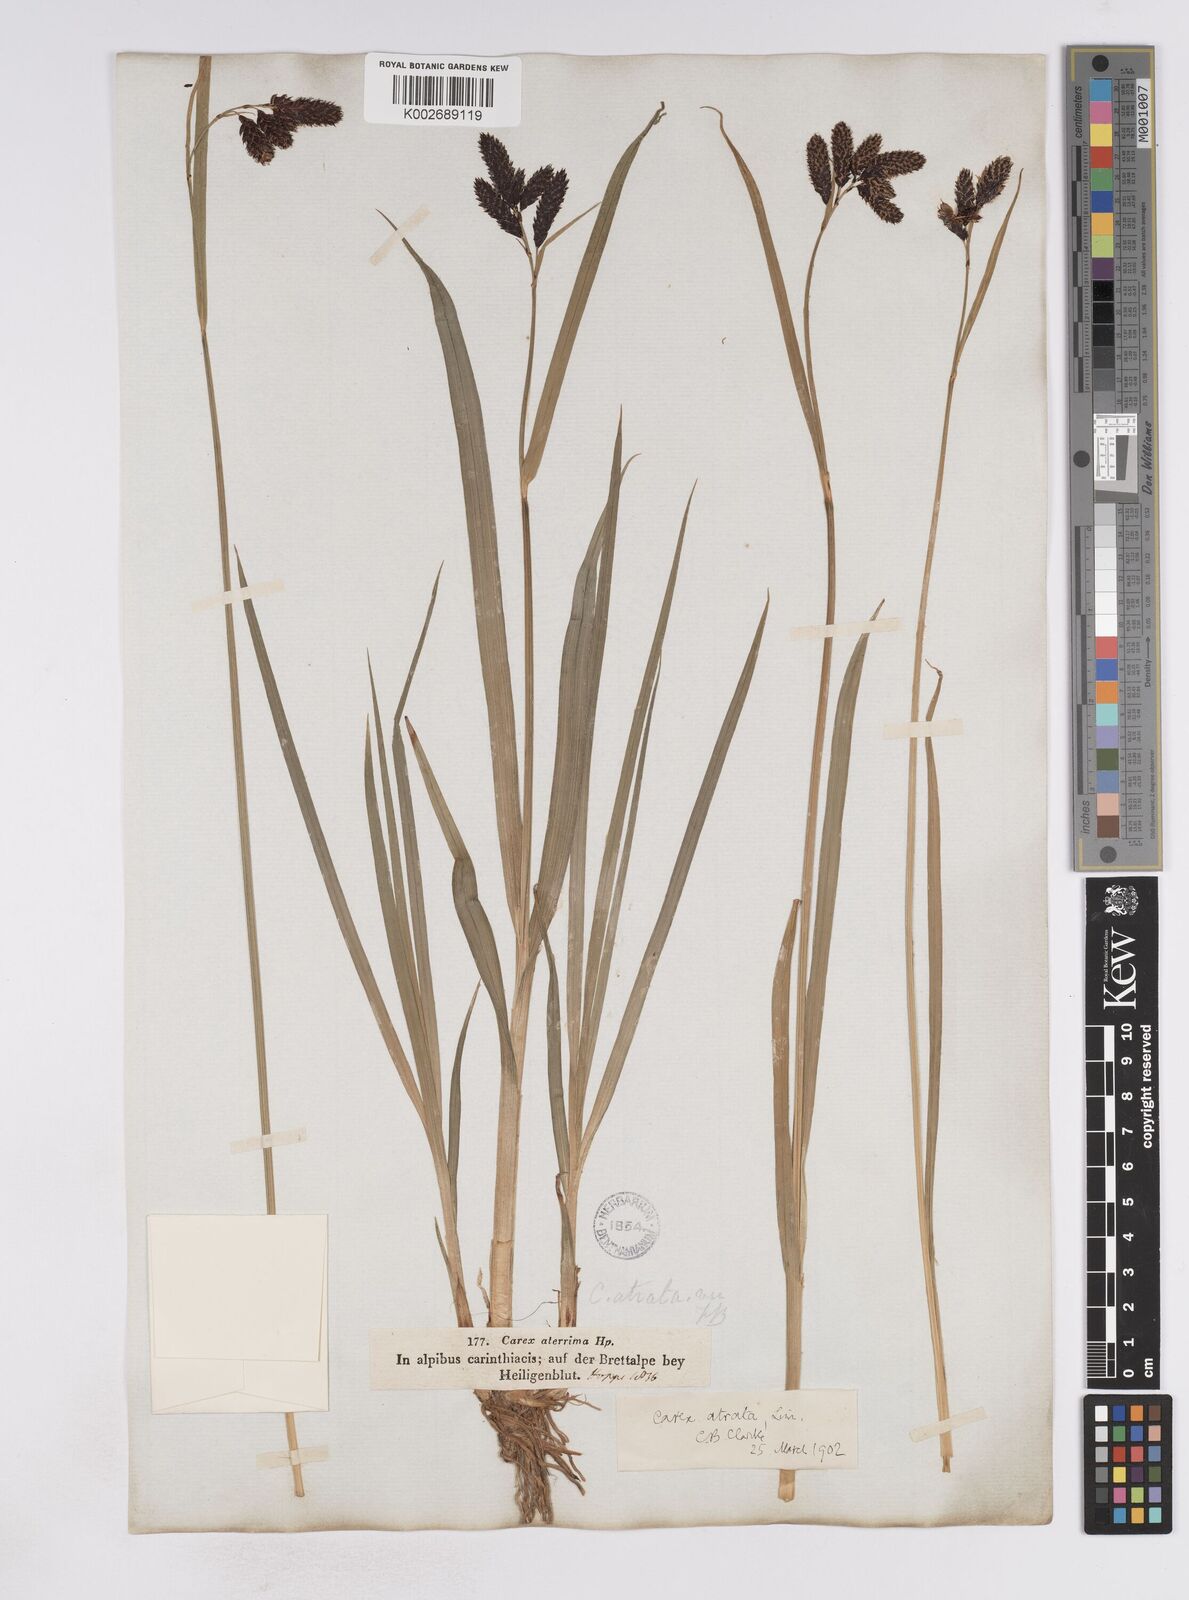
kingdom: Plantae
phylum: Tracheophyta
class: Liliopsida
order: Poales
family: Cyperaceae
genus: Carex
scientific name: Carex aterrima
